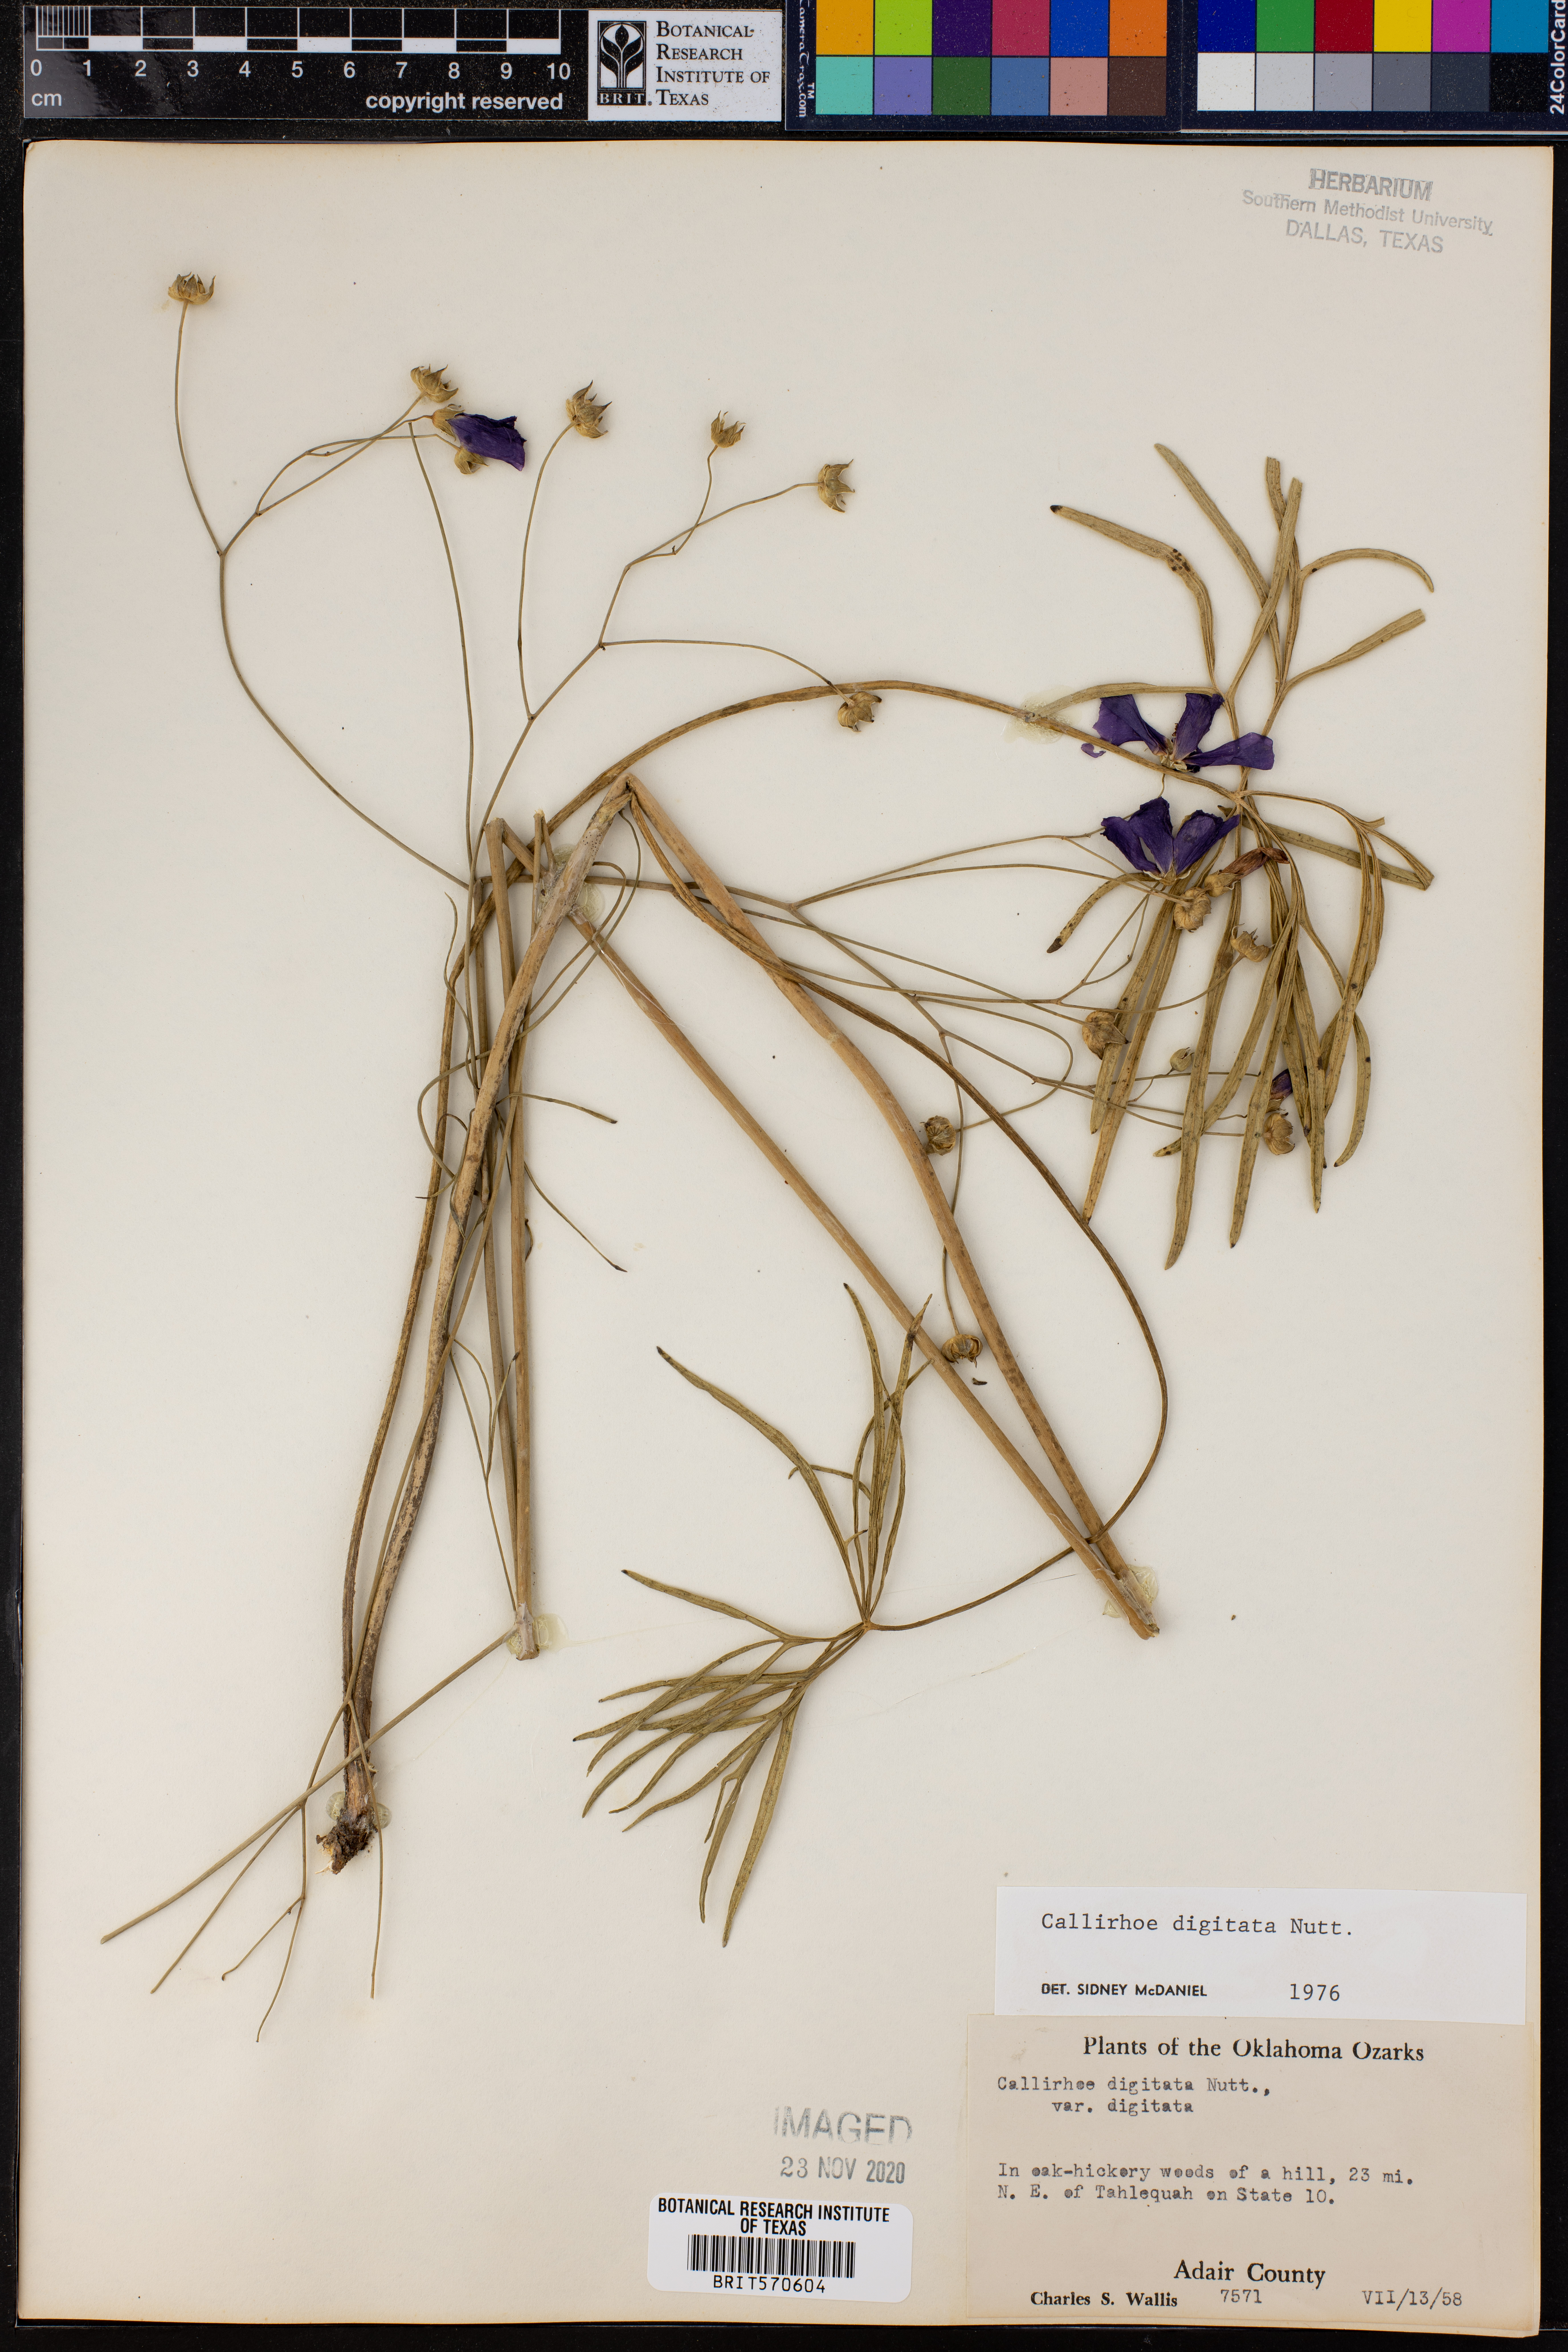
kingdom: Plantae
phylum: Tracheophyta
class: Magnoliopsida
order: Malvales
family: Malvaceae
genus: Callirhoe
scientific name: Callirhoe digitata
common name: Finger poppy-mallow
